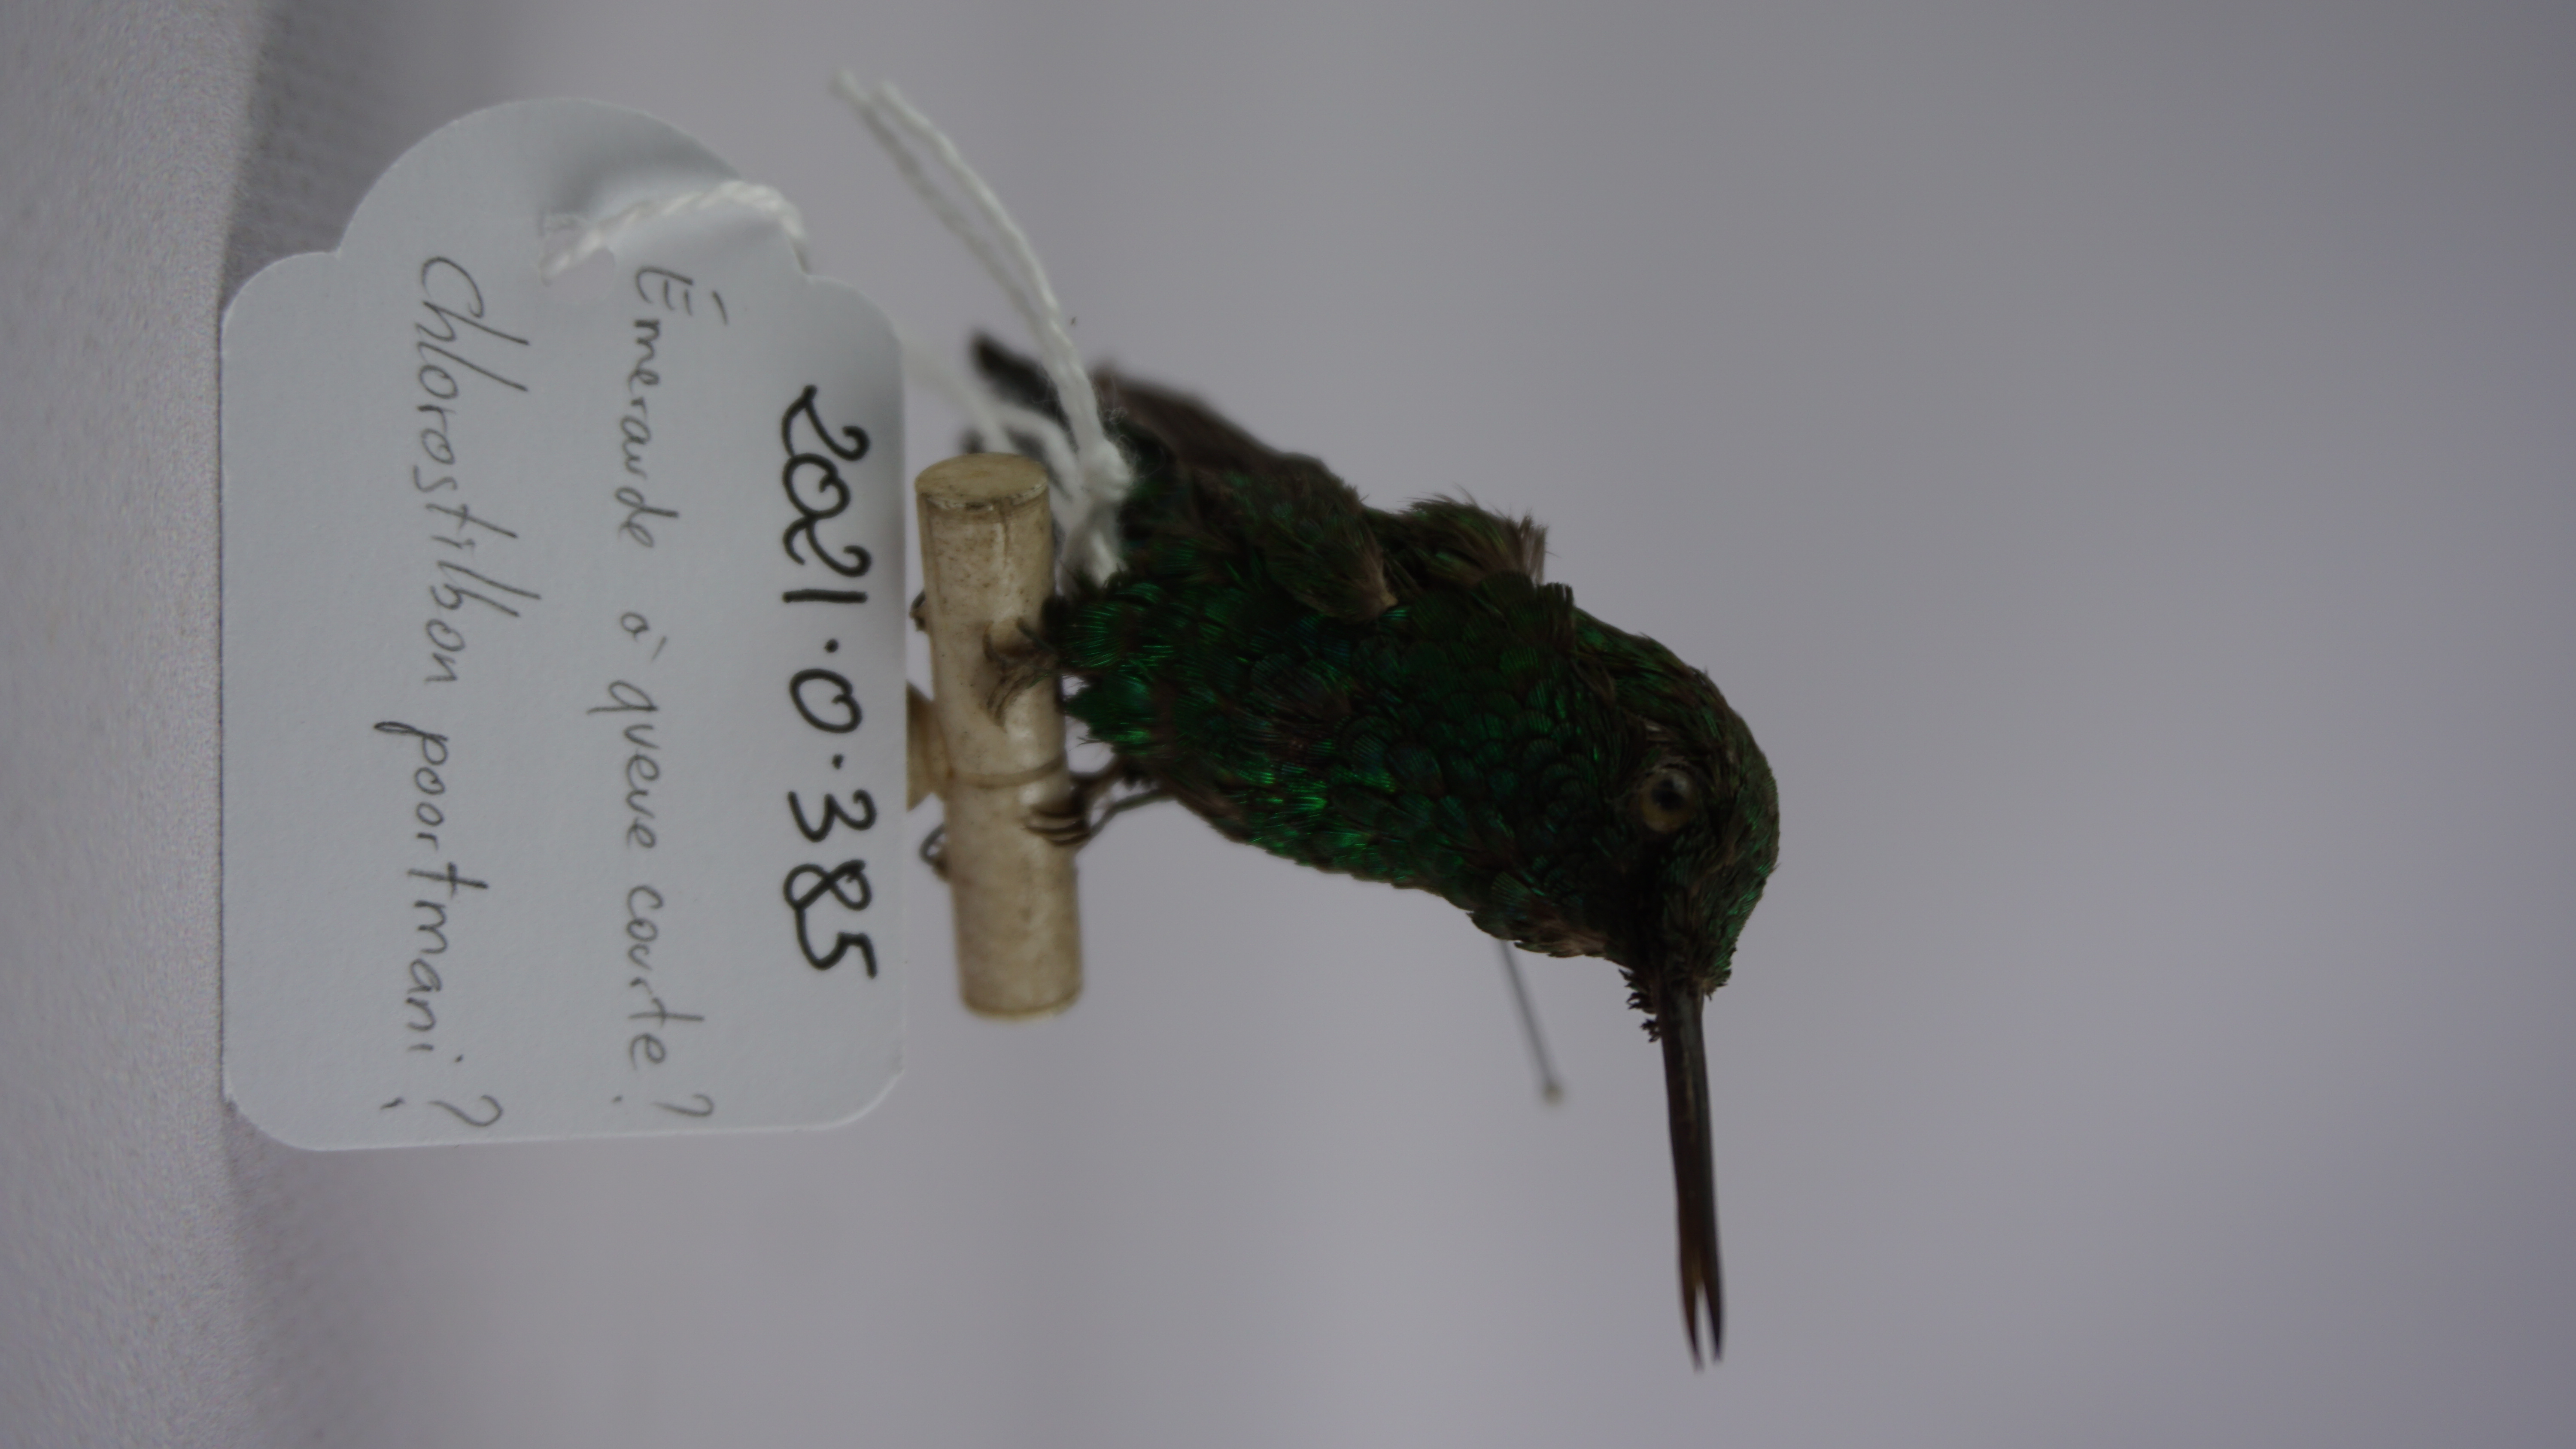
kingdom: Animalia
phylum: Chordata
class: Aves
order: Apodiformes
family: Trochilidae
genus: Chlorostilbon
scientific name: Chlorostilbon poortmani
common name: Short-tailed emerald
